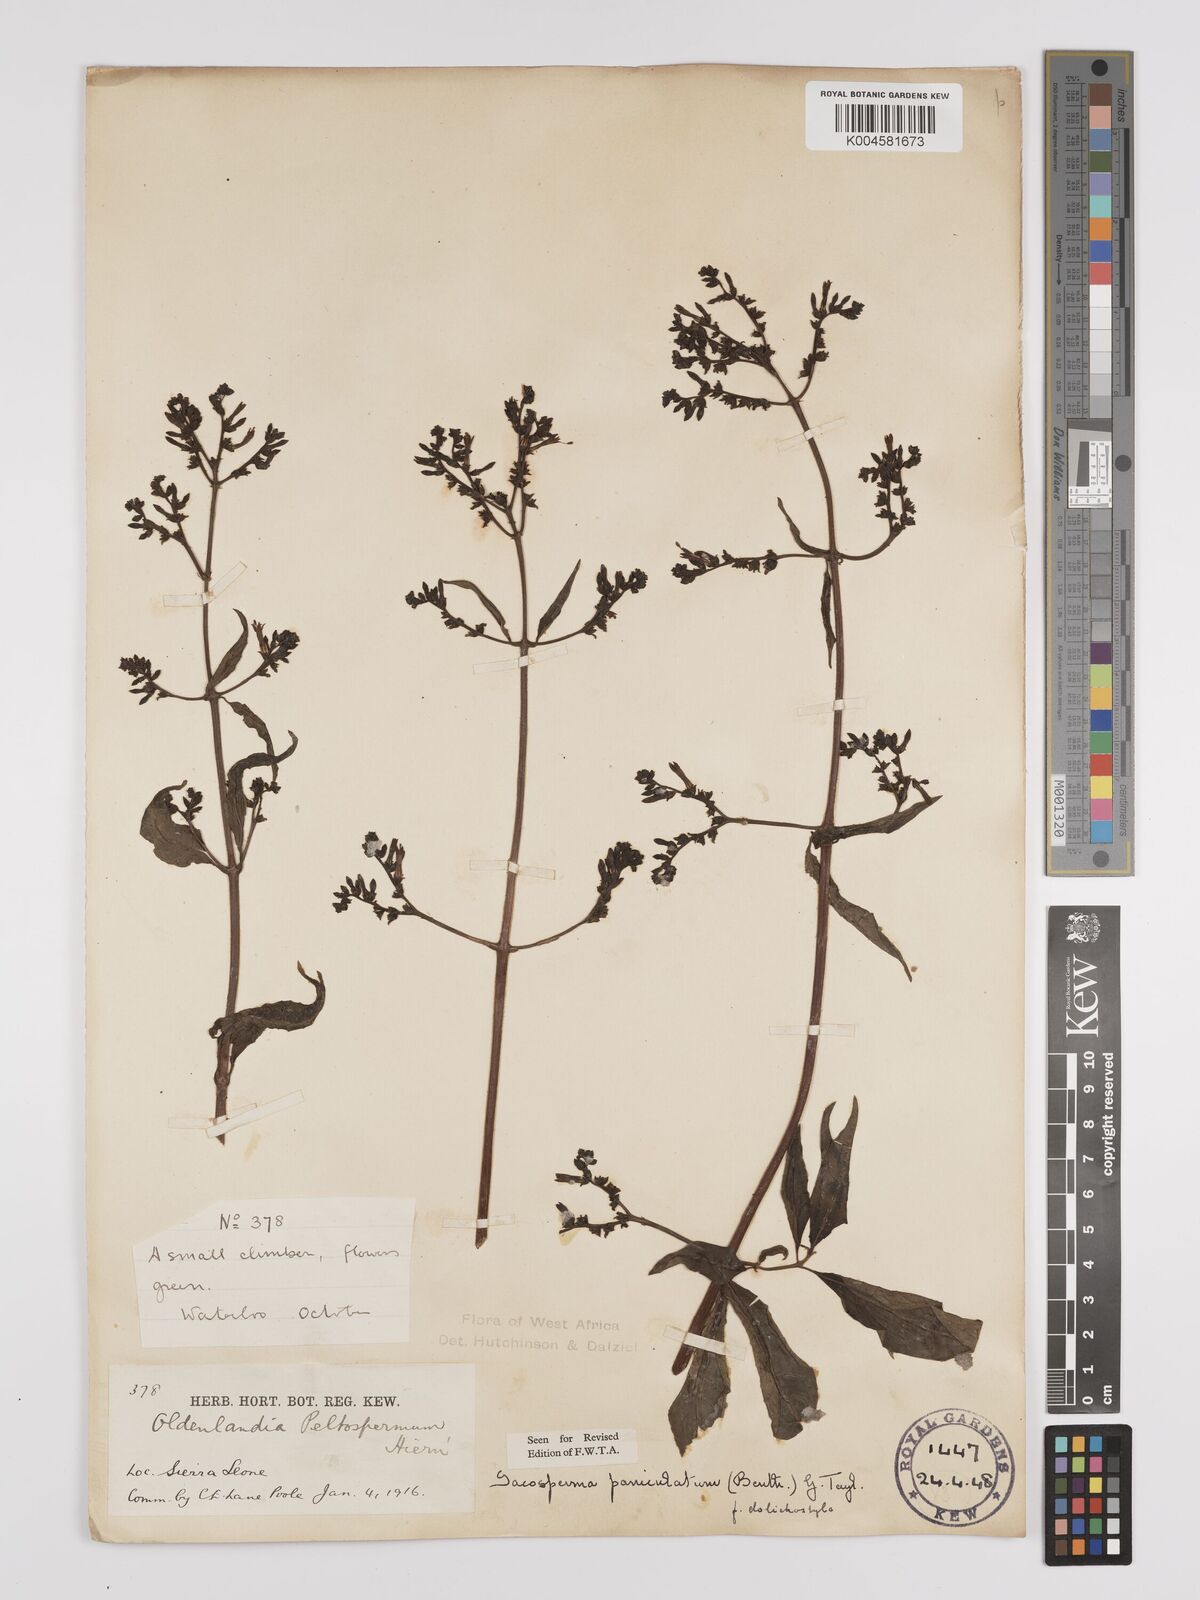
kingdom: Plantae
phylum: Tracheophyta
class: Magnoliopsida
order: Gentianales
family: Rubiaceae
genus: Sacosperma
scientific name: Sacosperma paniculatum
